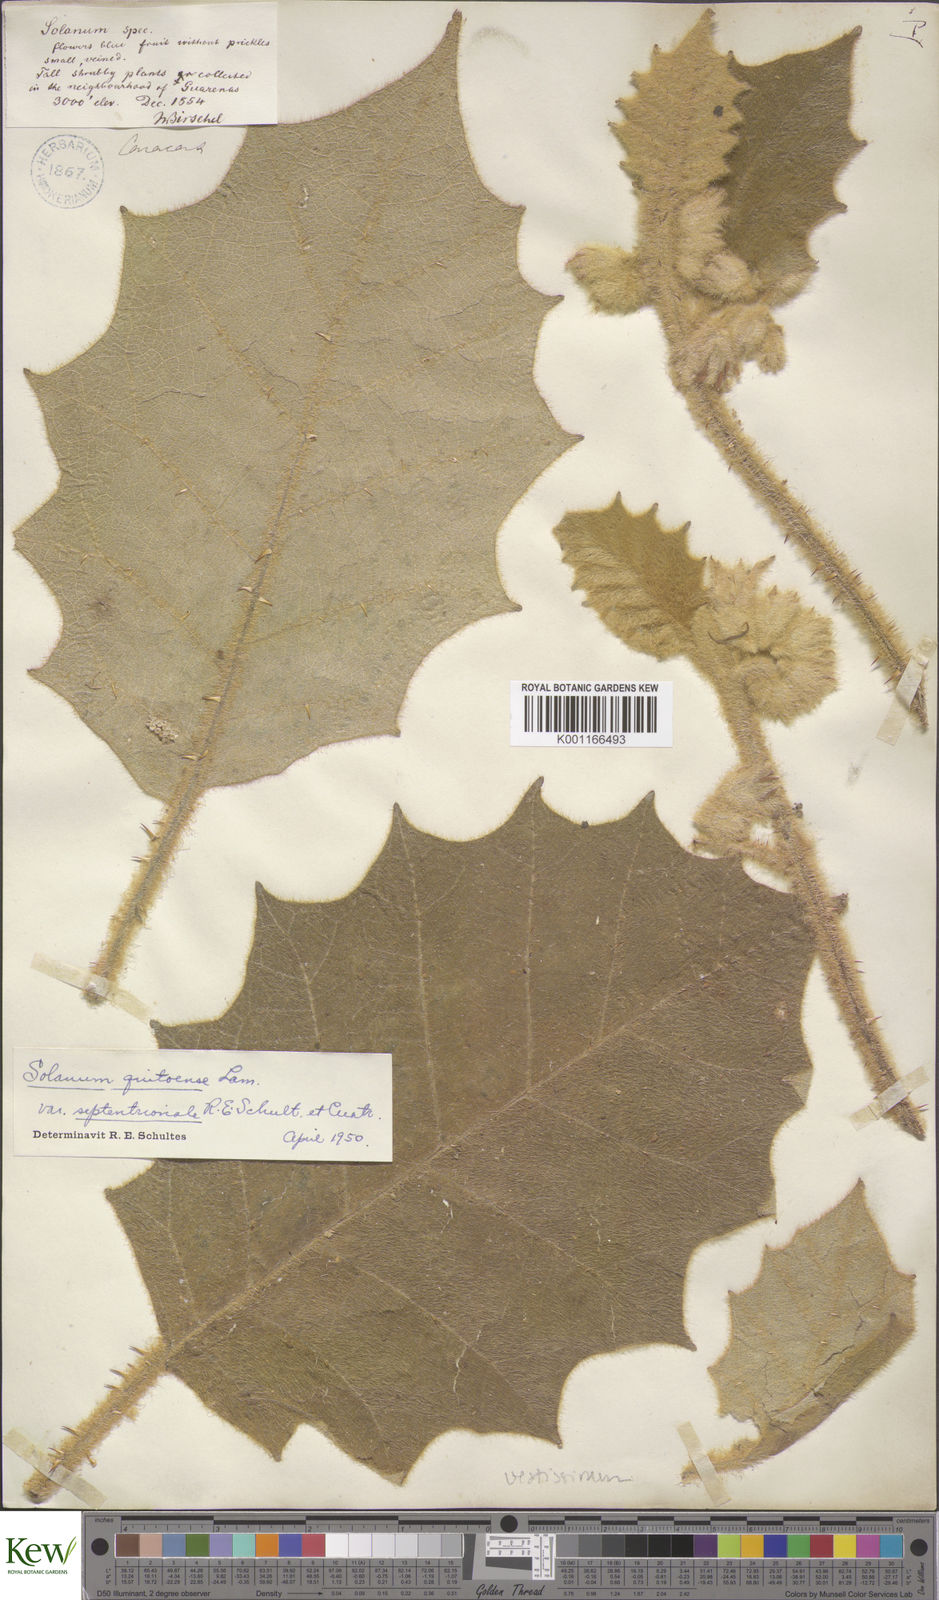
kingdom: Plantae
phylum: Tracheophyta
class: Magnoliopsida
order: Solanales
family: Solanaceae
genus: Solanum
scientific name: Solanum vestissimum
